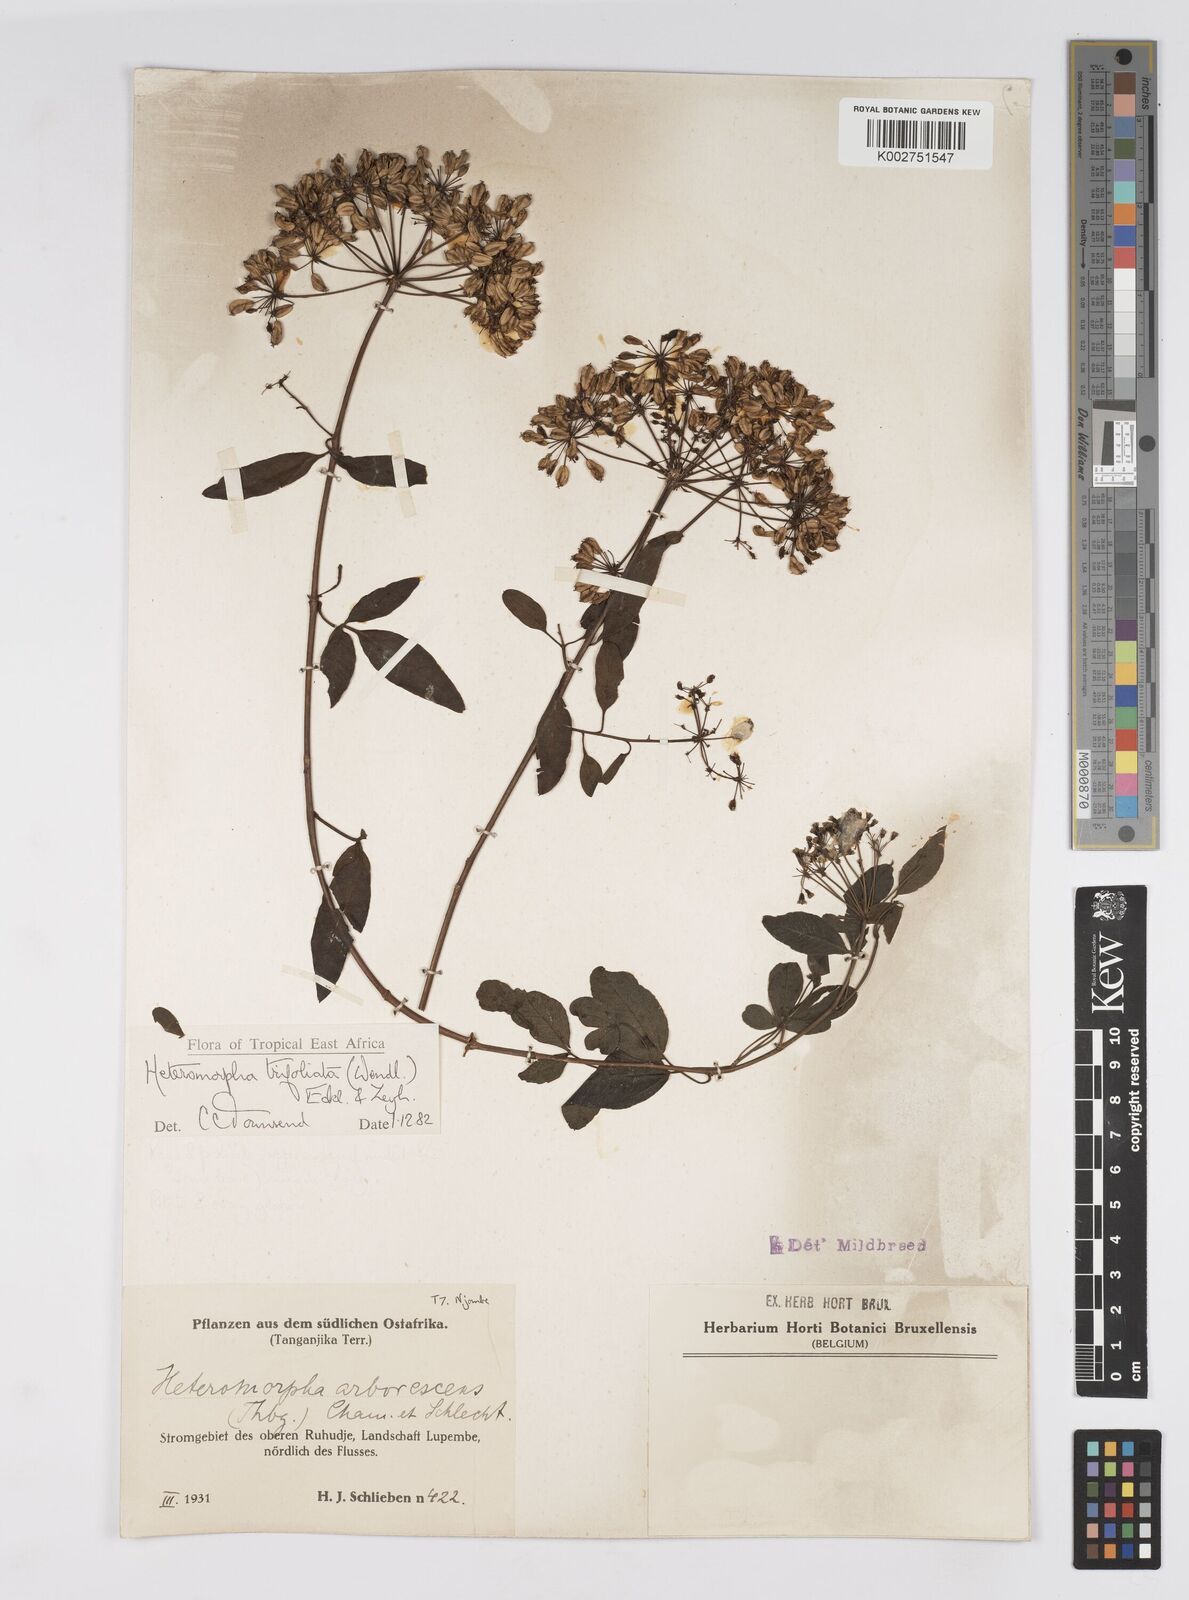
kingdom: Plantae
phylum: Tracheophyta
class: Magnoliopsida
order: Apiales
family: Apiaceae
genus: Heteromorpha
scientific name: Heteromorpha arborescens
